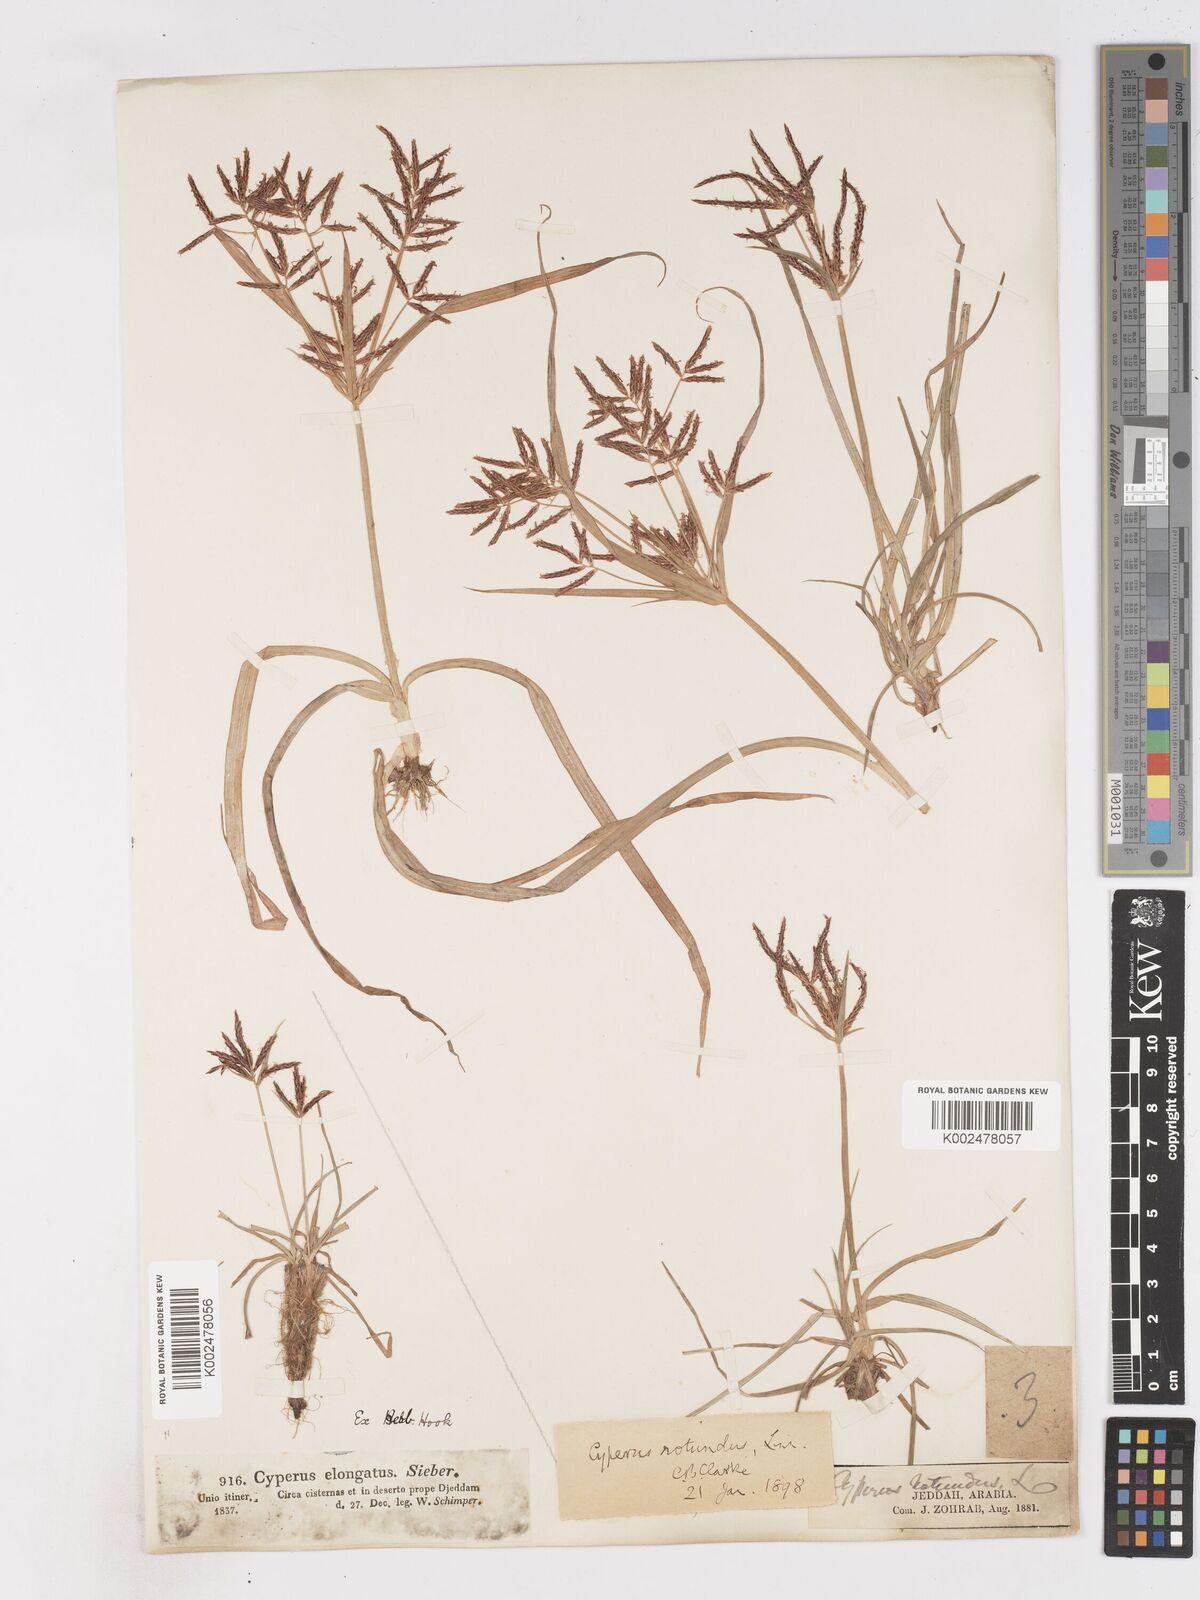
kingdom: Plantae
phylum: Tracheophyta
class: Liliopsida
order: Poales
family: Cyperaceae
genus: Cyperus
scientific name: Cyperus rotundus
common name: Nutgrass
